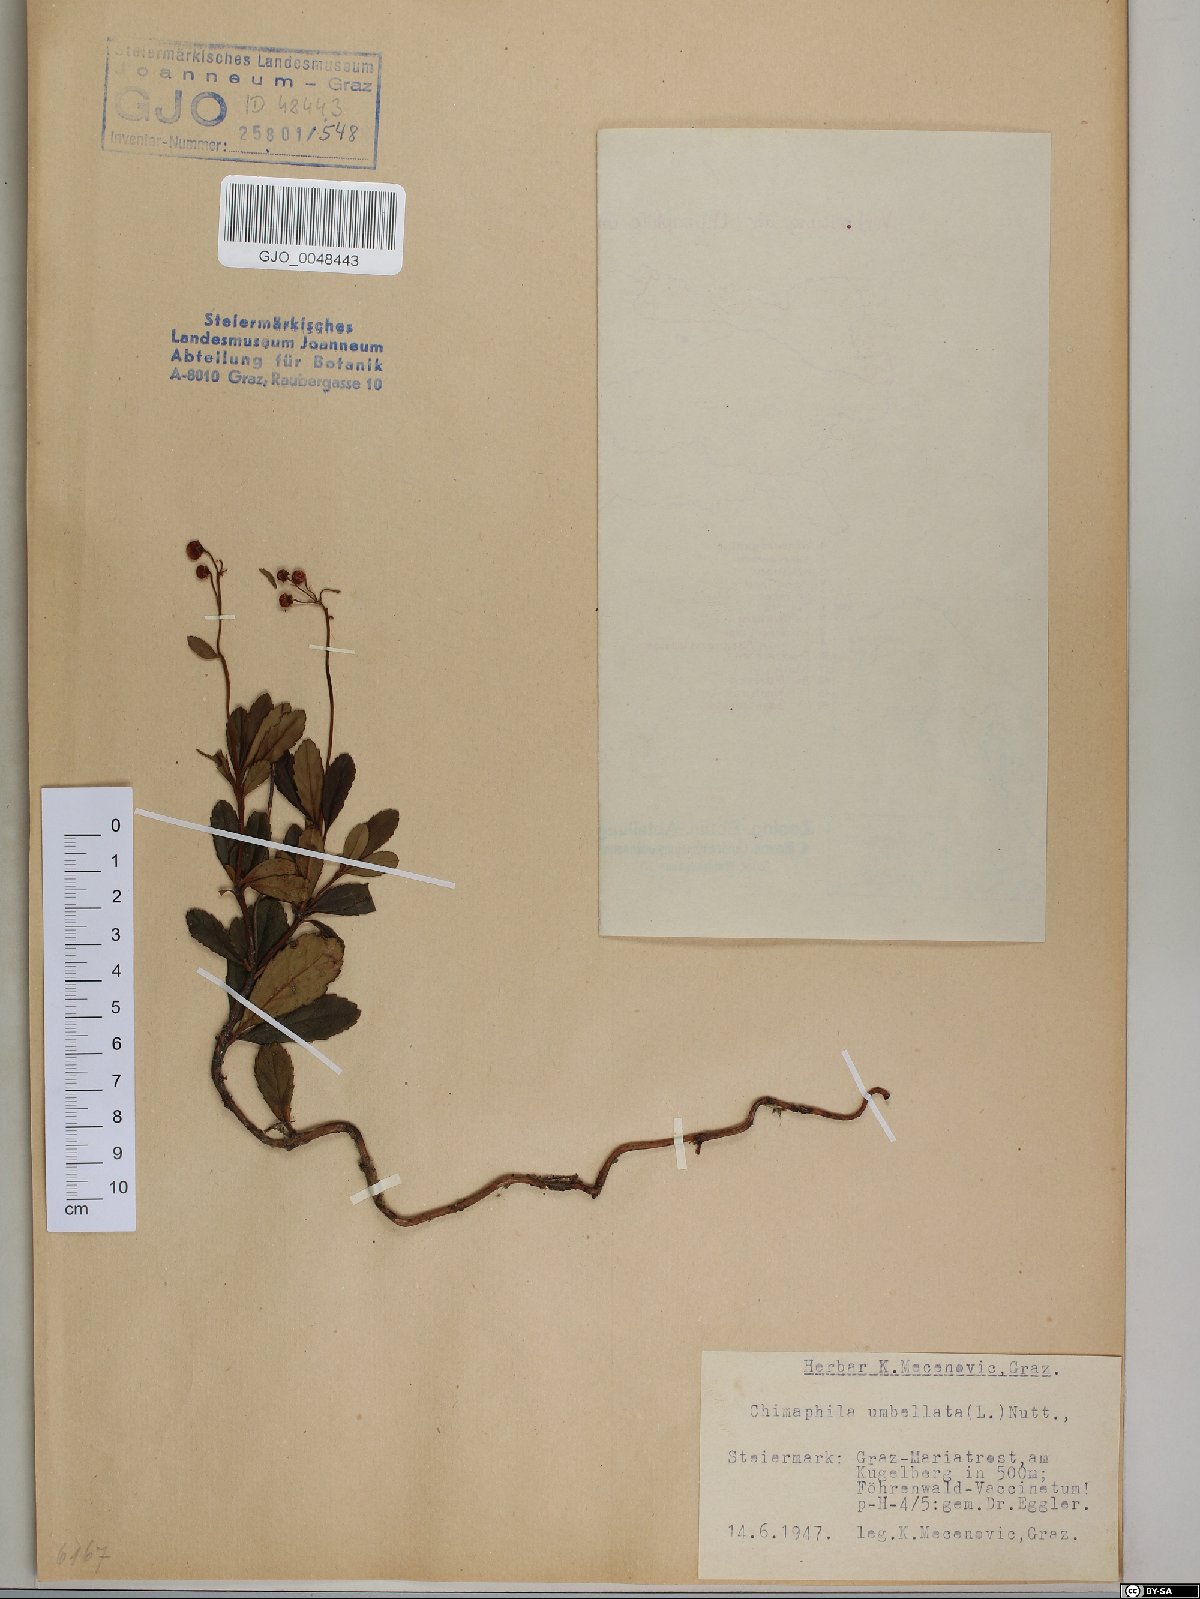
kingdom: Plantae
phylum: Tracheophyta
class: Magnoliopsida
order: Ericales
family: Ericaceae
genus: Chimaphila
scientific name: Chimaphila umbellata
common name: Pipsissewa
